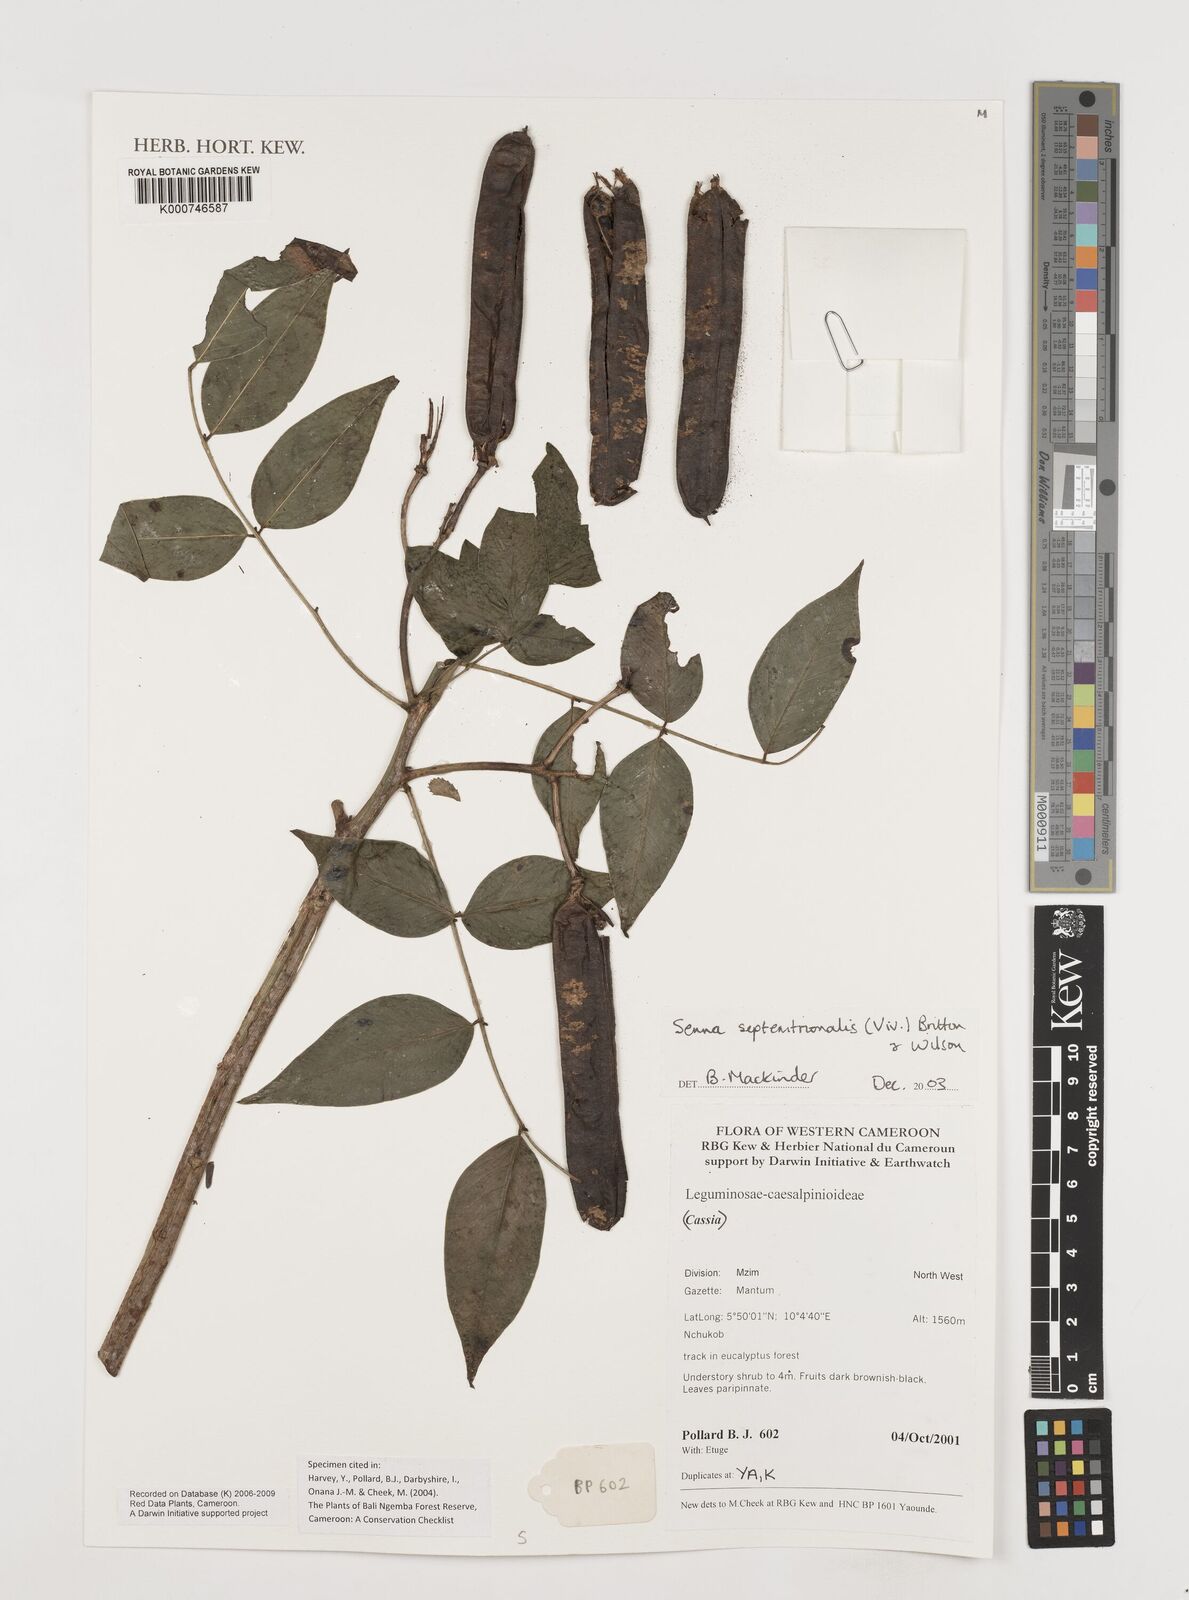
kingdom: Plantae
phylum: Tracheophyta
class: Magnoliopsida
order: Fabales
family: Fabaceae
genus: Senna
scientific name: Senna septemtrionalis
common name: Arsenic bush
